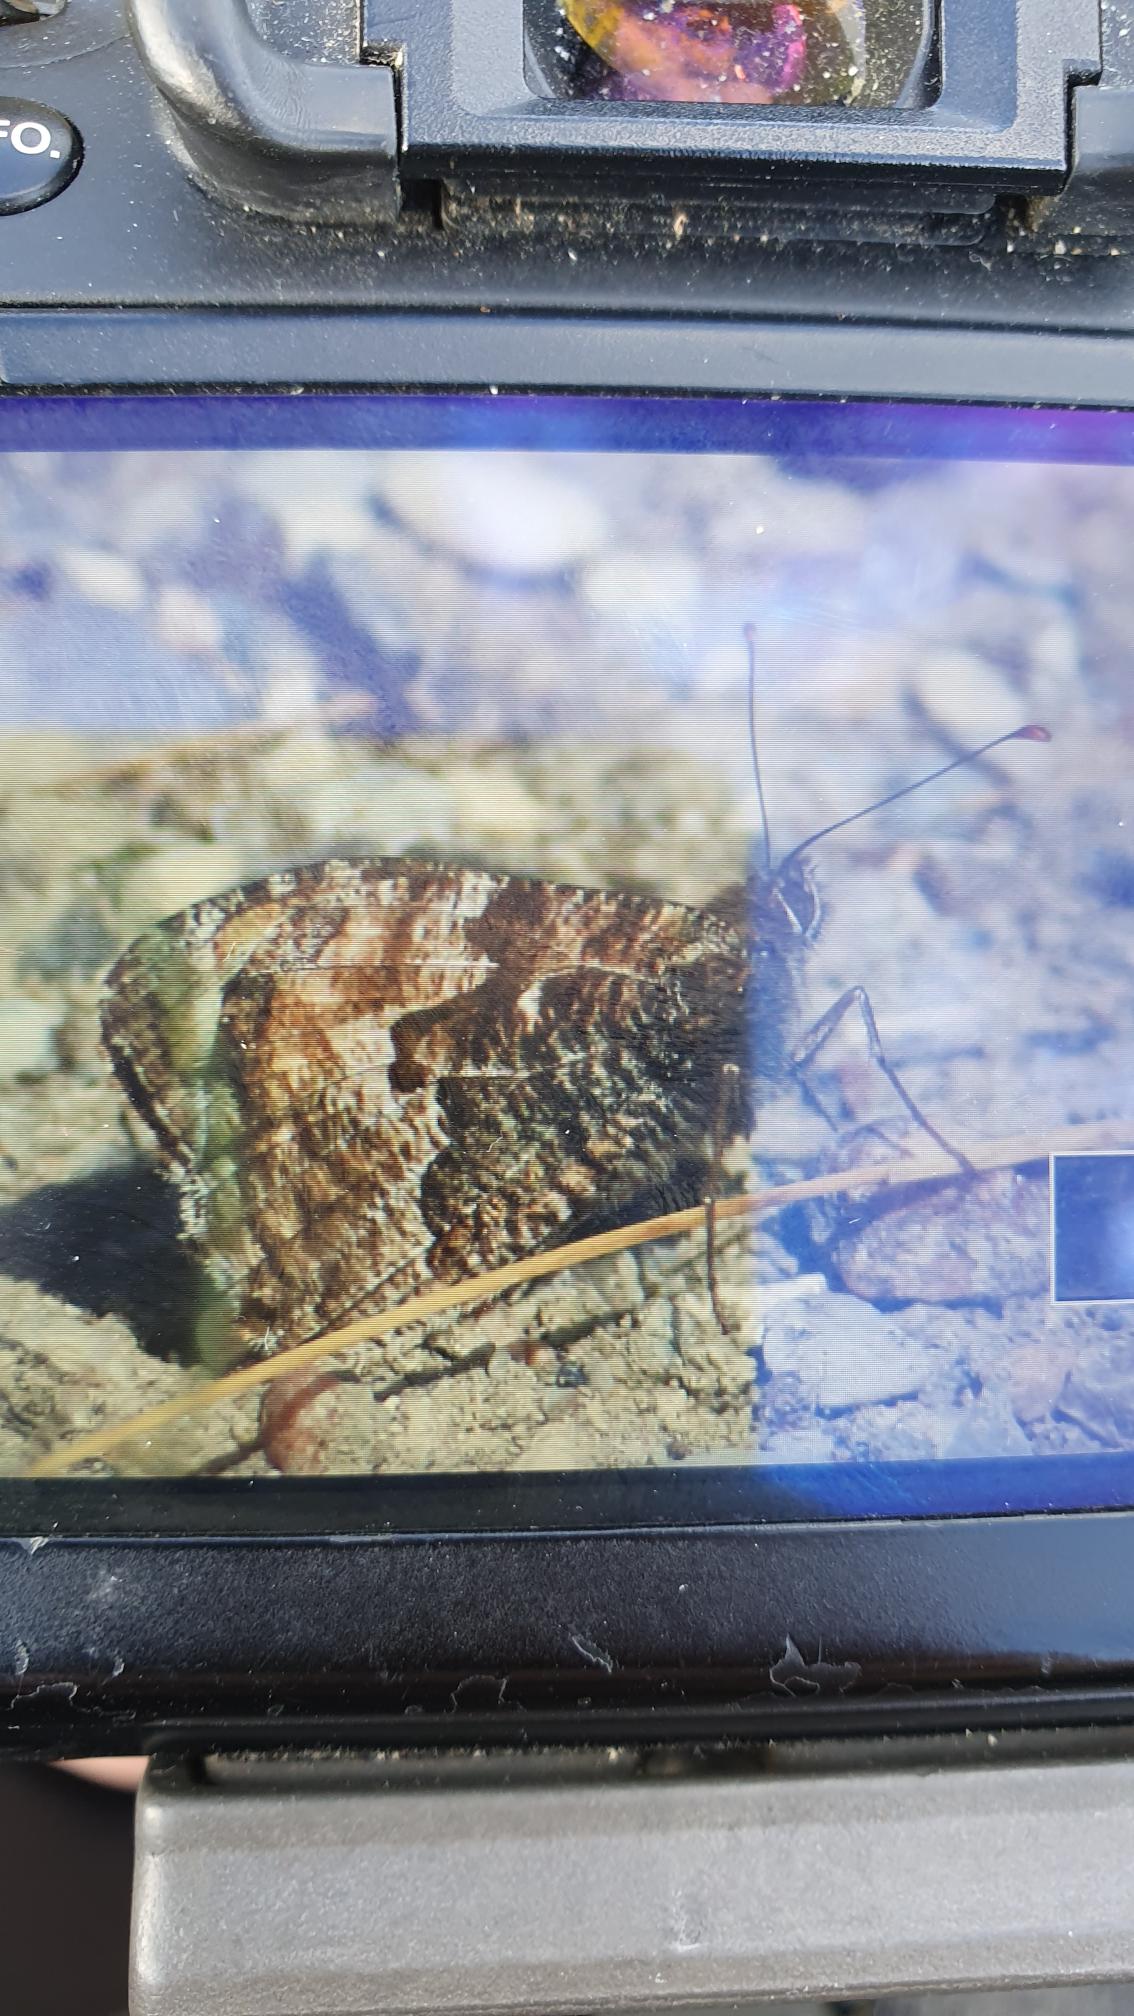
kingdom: Animalia
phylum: Arthropoda
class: Insecta
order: Lepidoptera
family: Nymphalidae
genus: Hipparchia
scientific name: Hipparchia semele
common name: Sandrandøje
